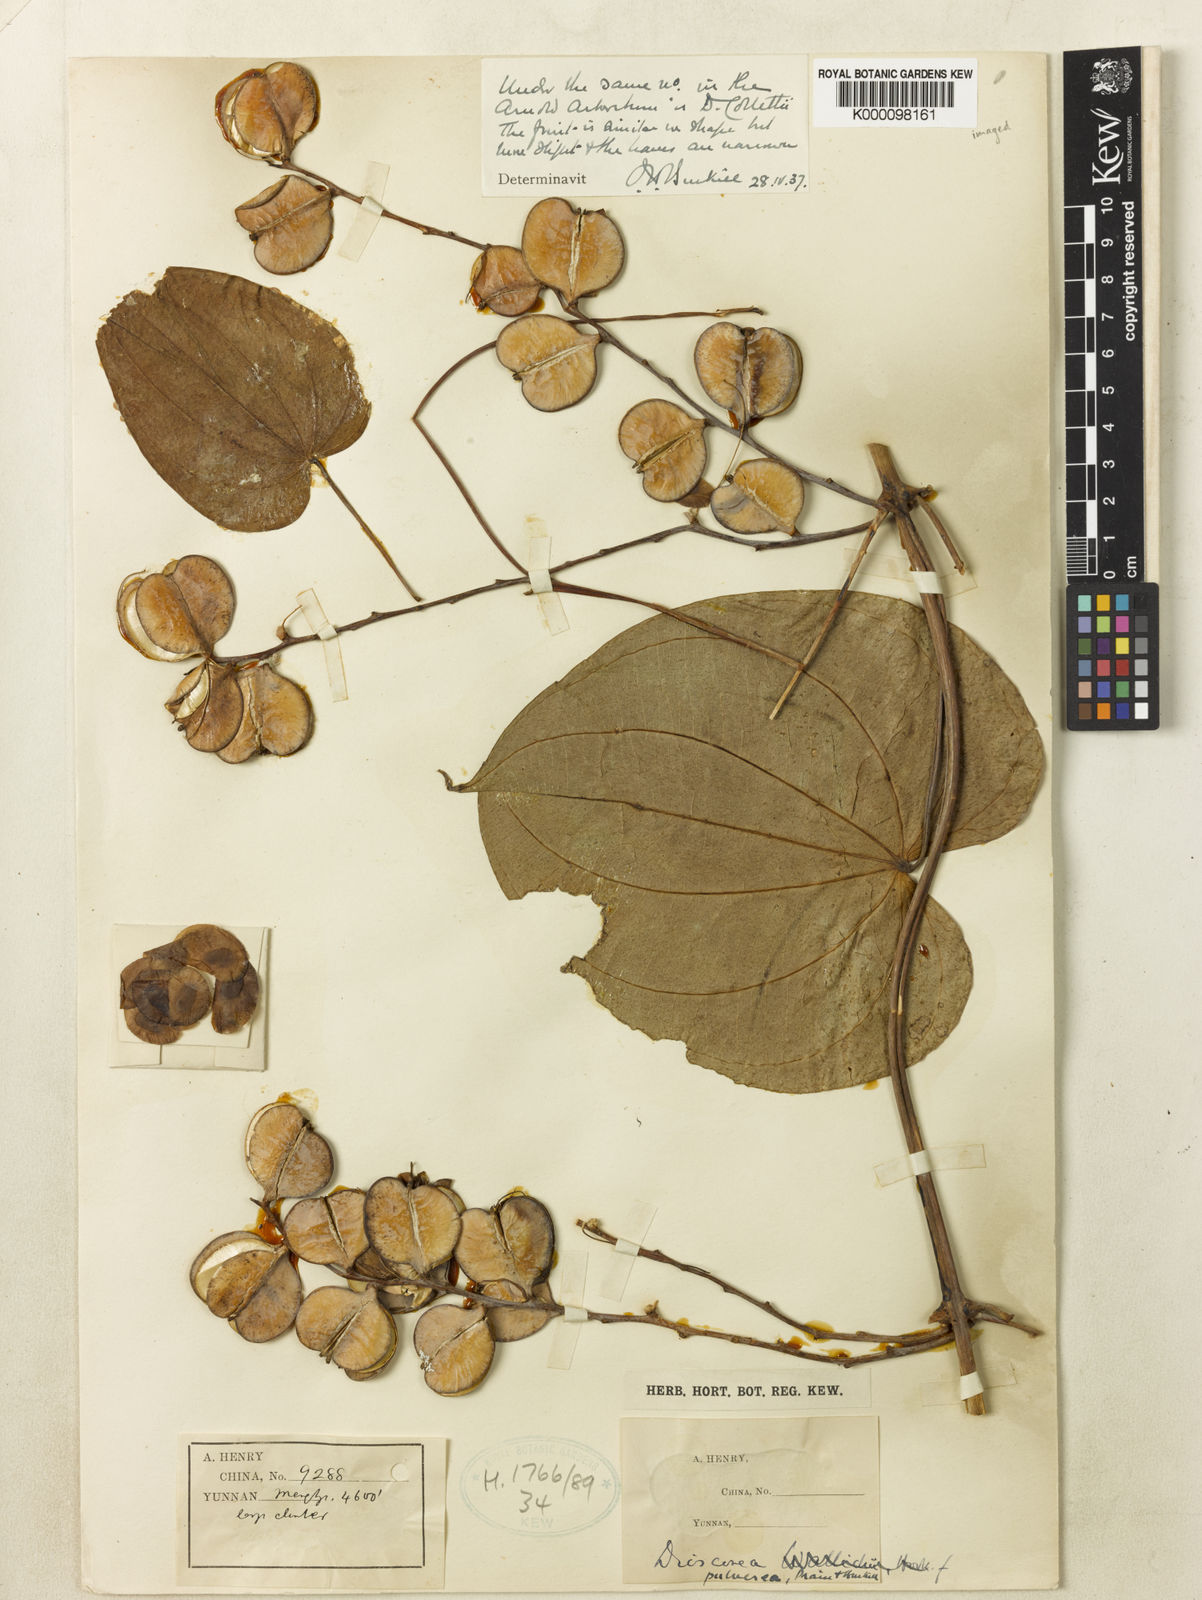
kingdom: Plantae
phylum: Tracheophyta
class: Liliopsida
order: Dioscoreales
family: Dioscoreaceae
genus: Dioscorea
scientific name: Dioscorea aspersa
